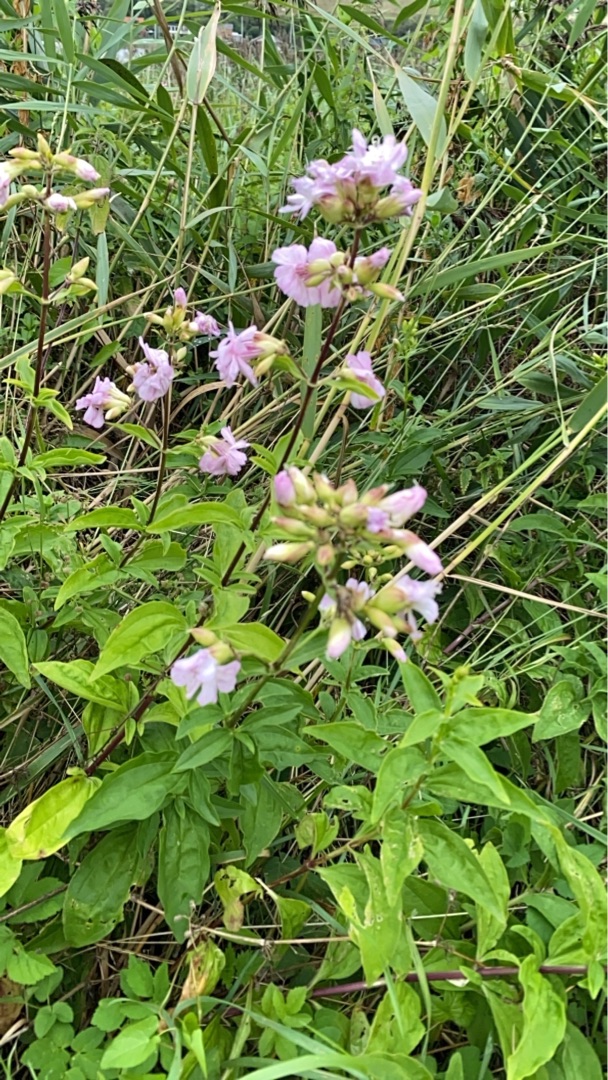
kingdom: Plantae
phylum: Tracheophyta
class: Magnoliopsida
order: Caryophyllales
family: Caryophyllaceae
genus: Saponaria
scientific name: Saponaria officinalis
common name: Sæbeurt
